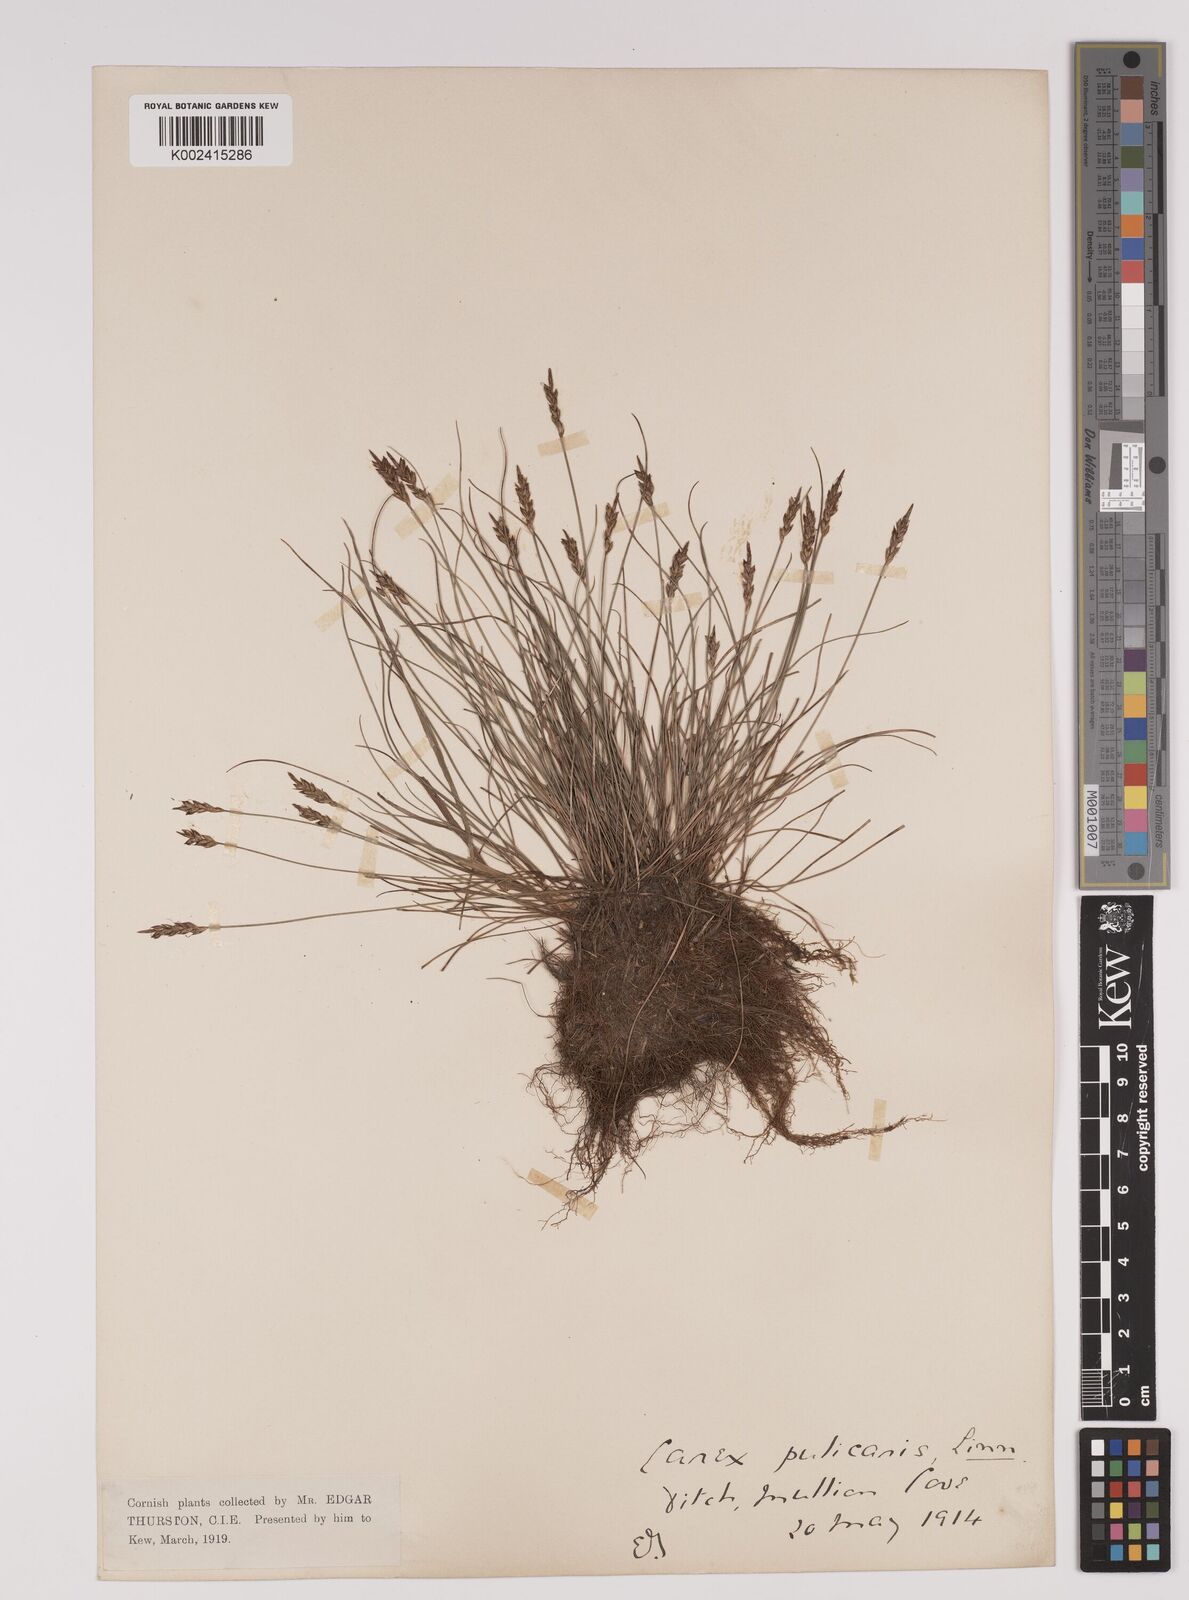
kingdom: Plantae
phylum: Tracheophyta
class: Liliopsida
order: Poales
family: Cyperaceae
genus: Carex
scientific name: Carex pulicaris
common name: Flea sedge
